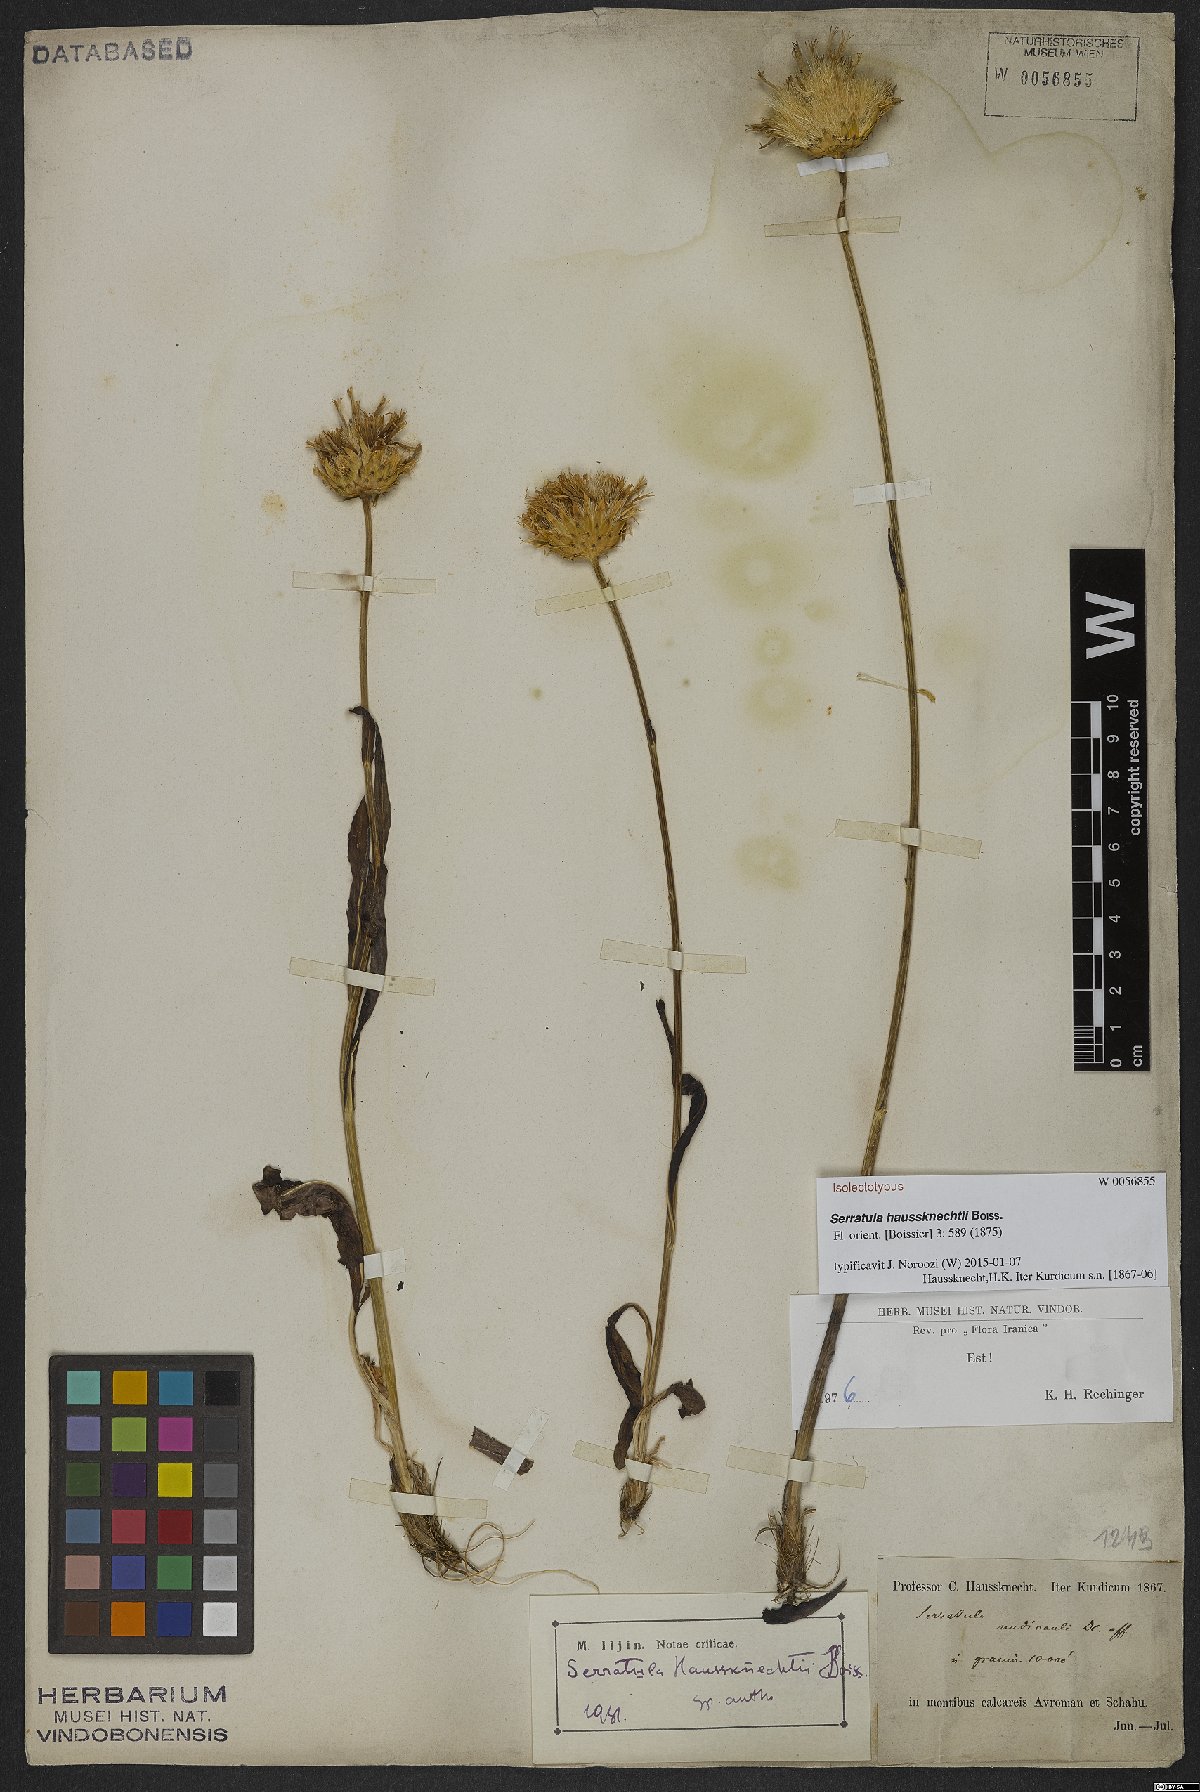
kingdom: Plantae
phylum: Tracheophyta
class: Magnoliopsida
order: Asterales
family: Asteraceae
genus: Klasea
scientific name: Klasea haussknechtii
